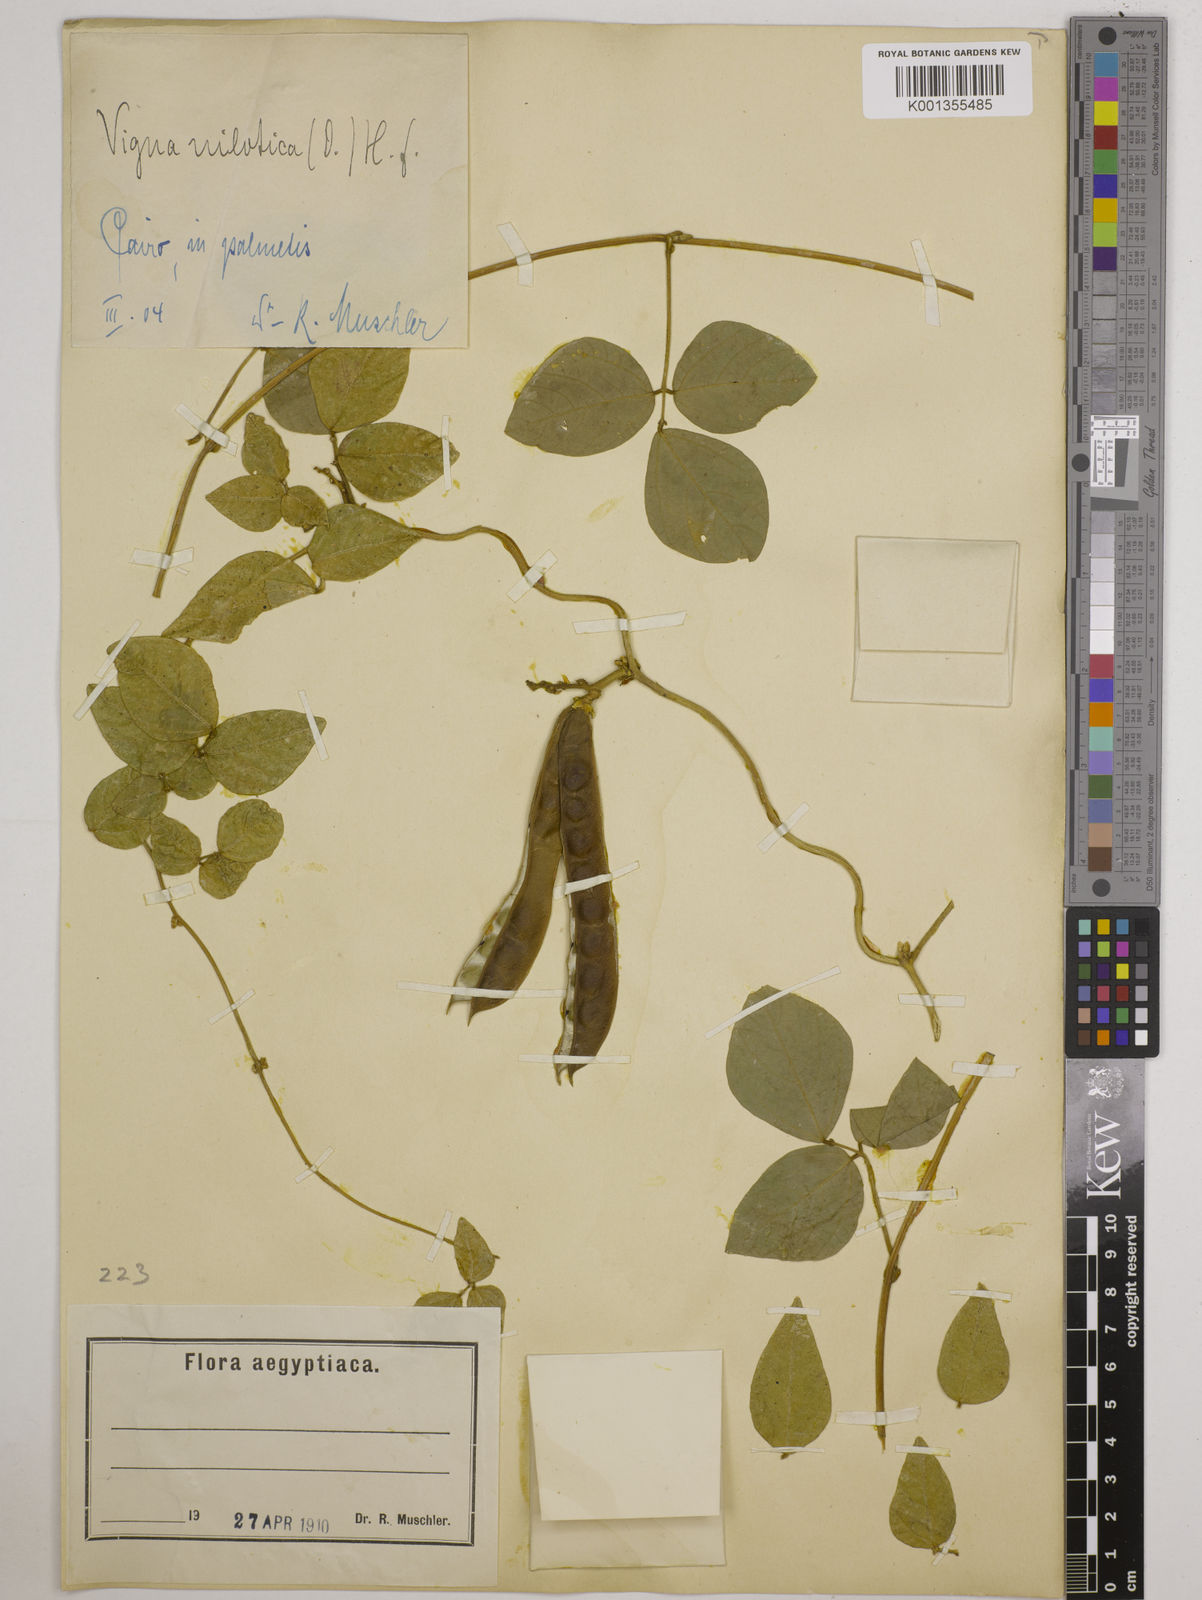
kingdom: Plantae
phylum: Tracheophyta
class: Magnoliopsida
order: Fabales
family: Fabaceae
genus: Vigna
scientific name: Vigna luteola
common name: Hairypod cowpea
